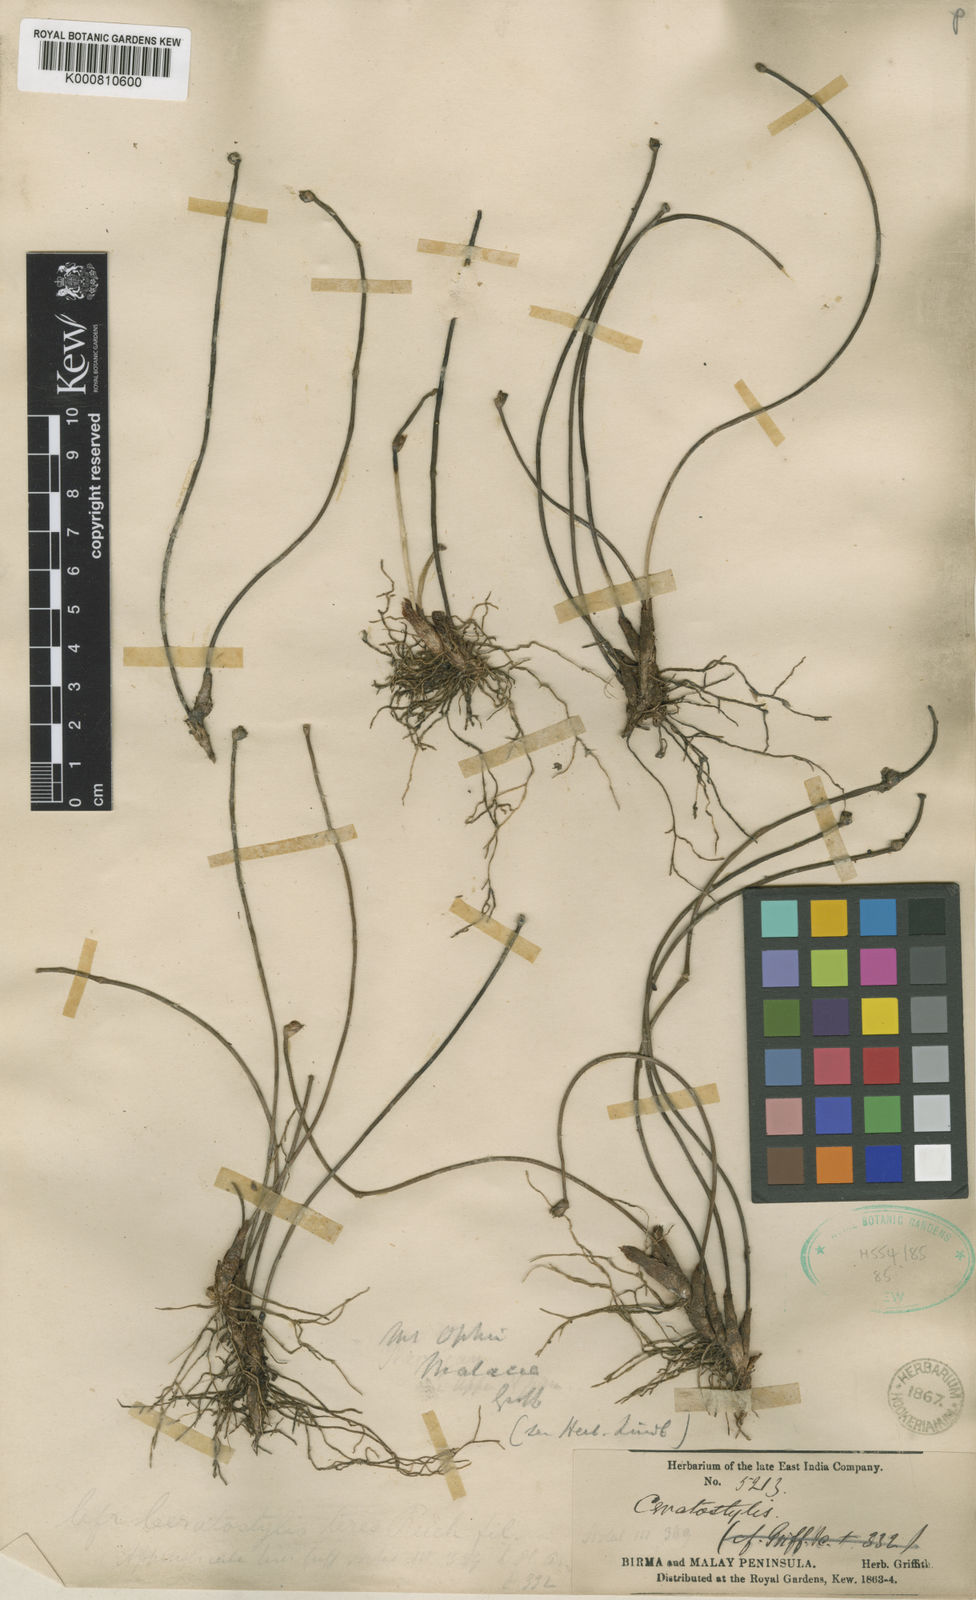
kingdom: Plantae
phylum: Tracheophyta
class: Liliopsida
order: Asparagales
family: Orchidaceae
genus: Ceratostylis
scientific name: Ceratostylis subulata
